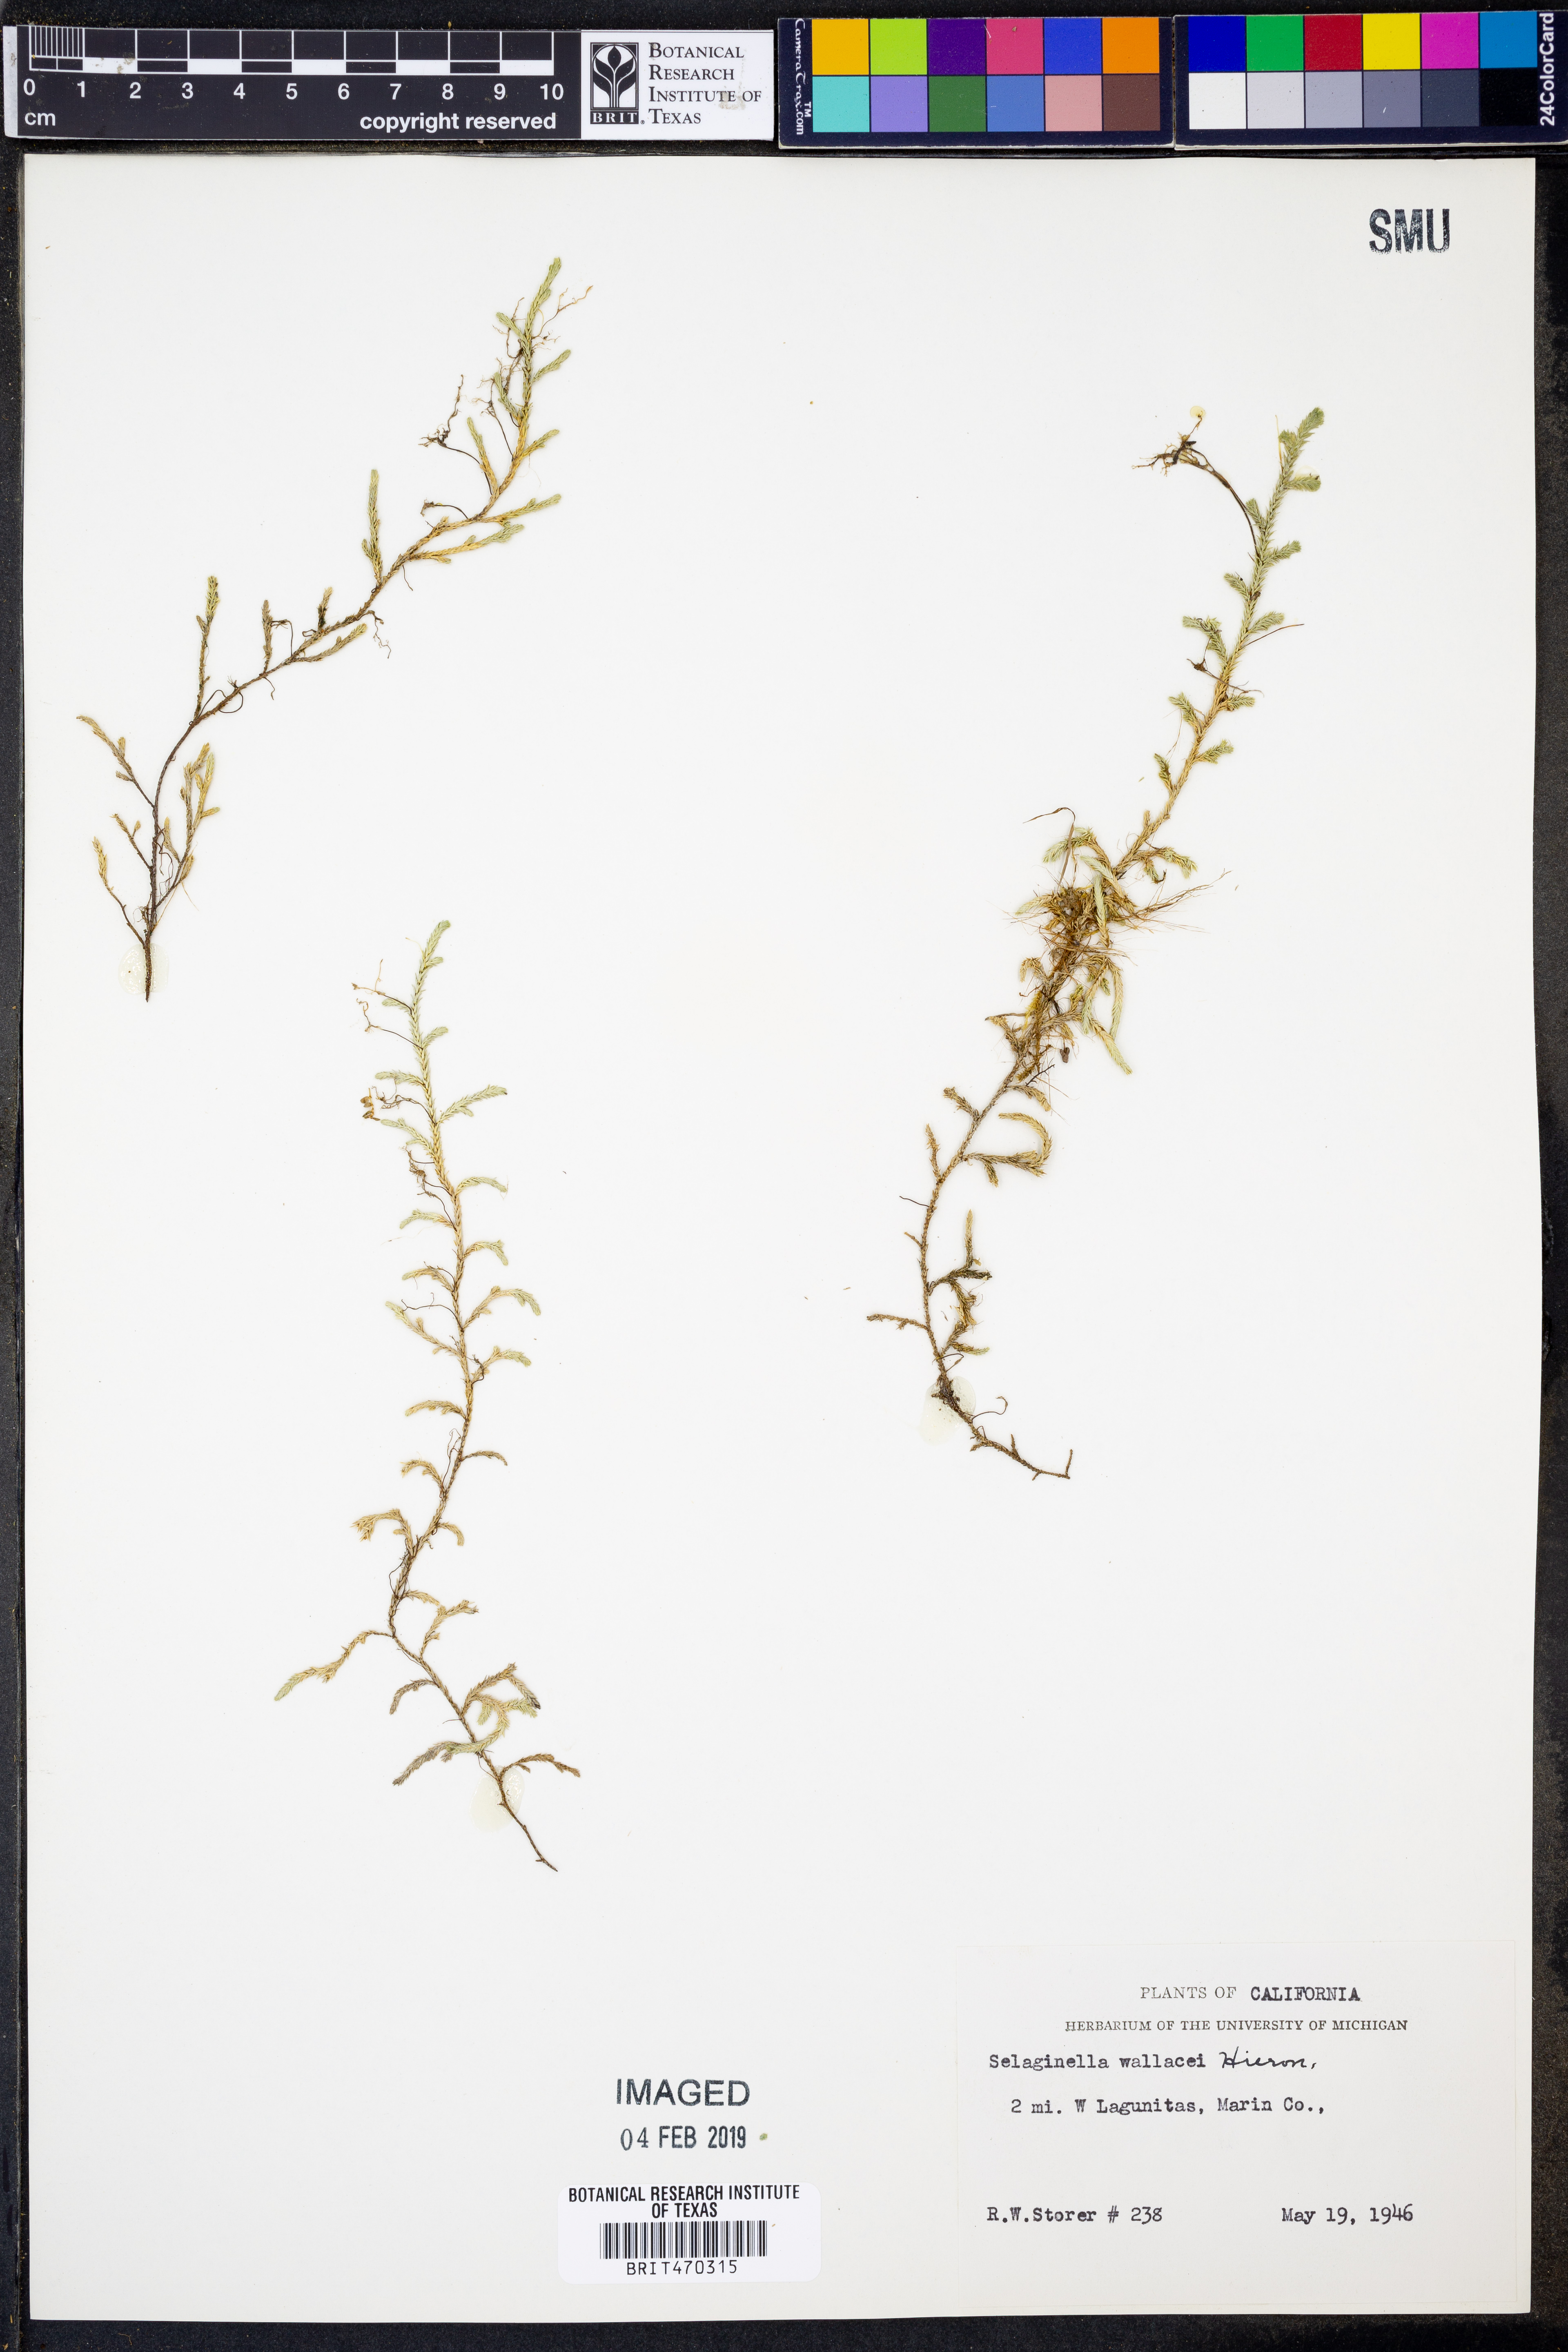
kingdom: Plantae
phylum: Tracheophyta
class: Lycopodiopsida
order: Selaginellales
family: Selaginellaceae
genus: Selaginella
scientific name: Selaginella wallacei
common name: Wallace's selaginella
